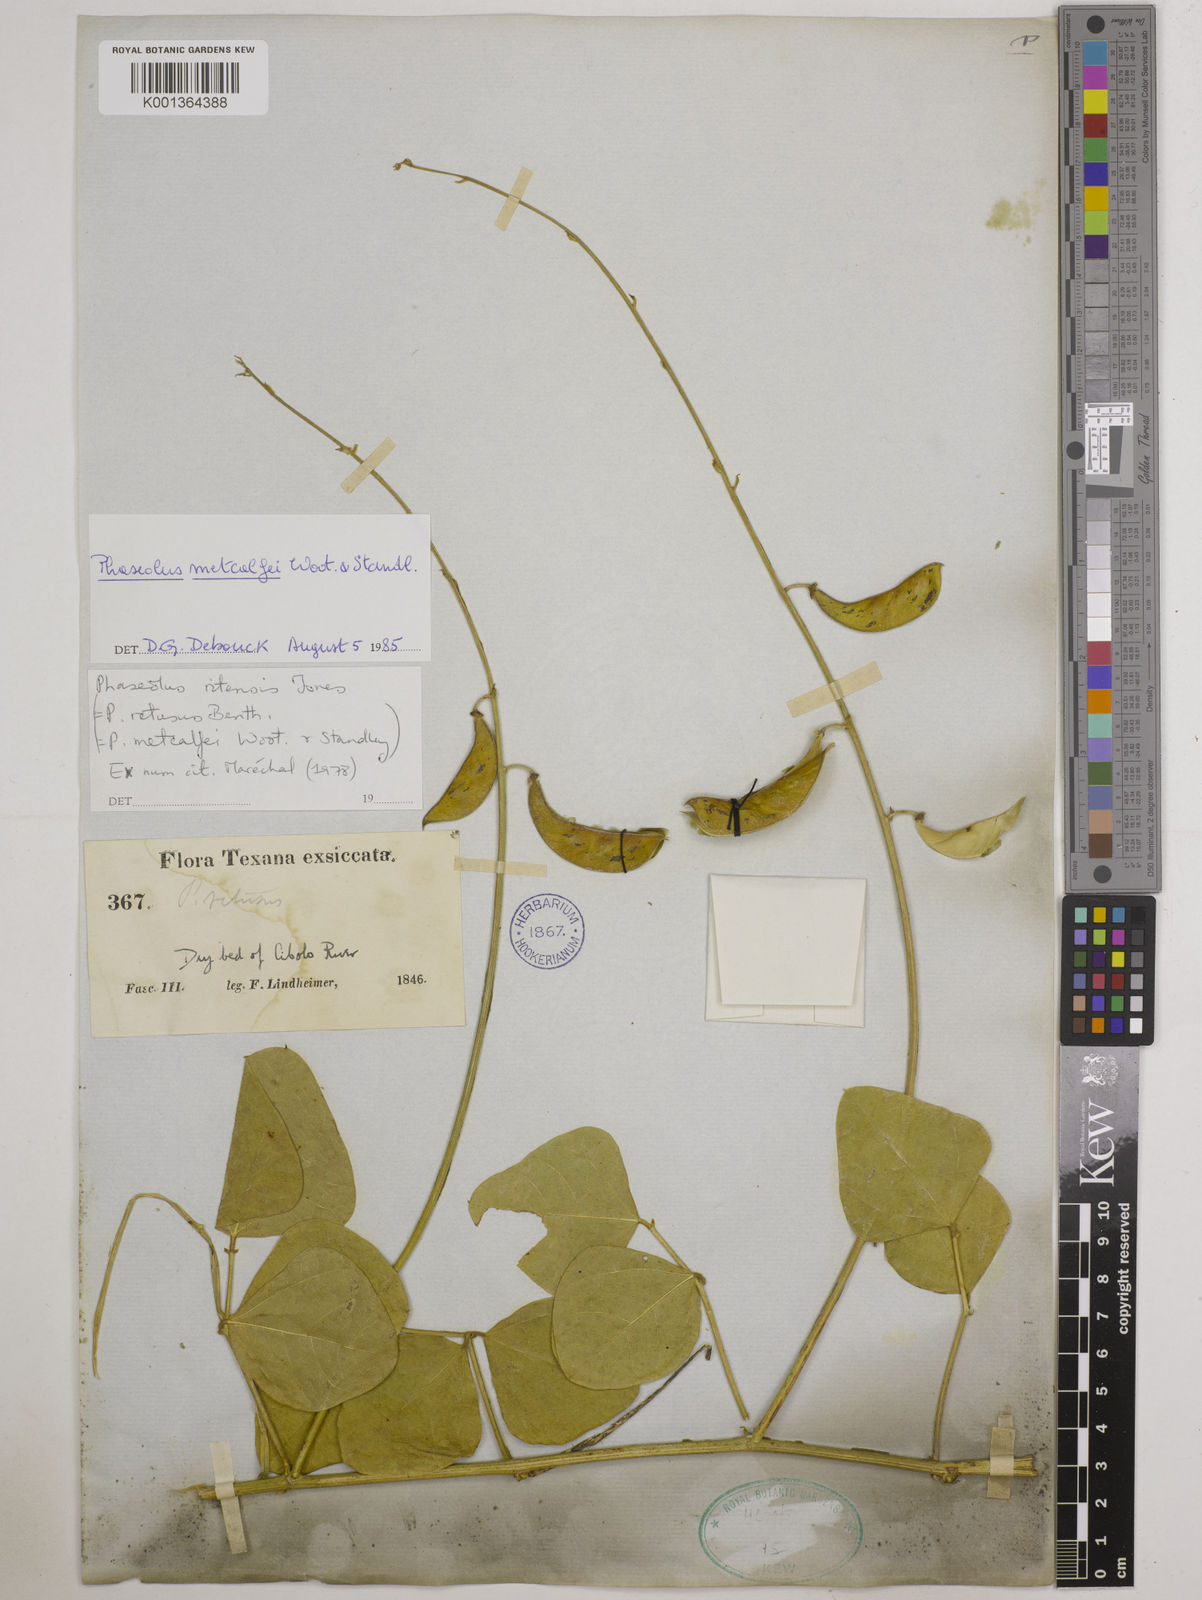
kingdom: Plantae
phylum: Tracheophyta
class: Magnoliopsida
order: Fabales
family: Fabaceae
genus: Phaseolus
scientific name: Phaseolus maculatus
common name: Metcalfe bean
